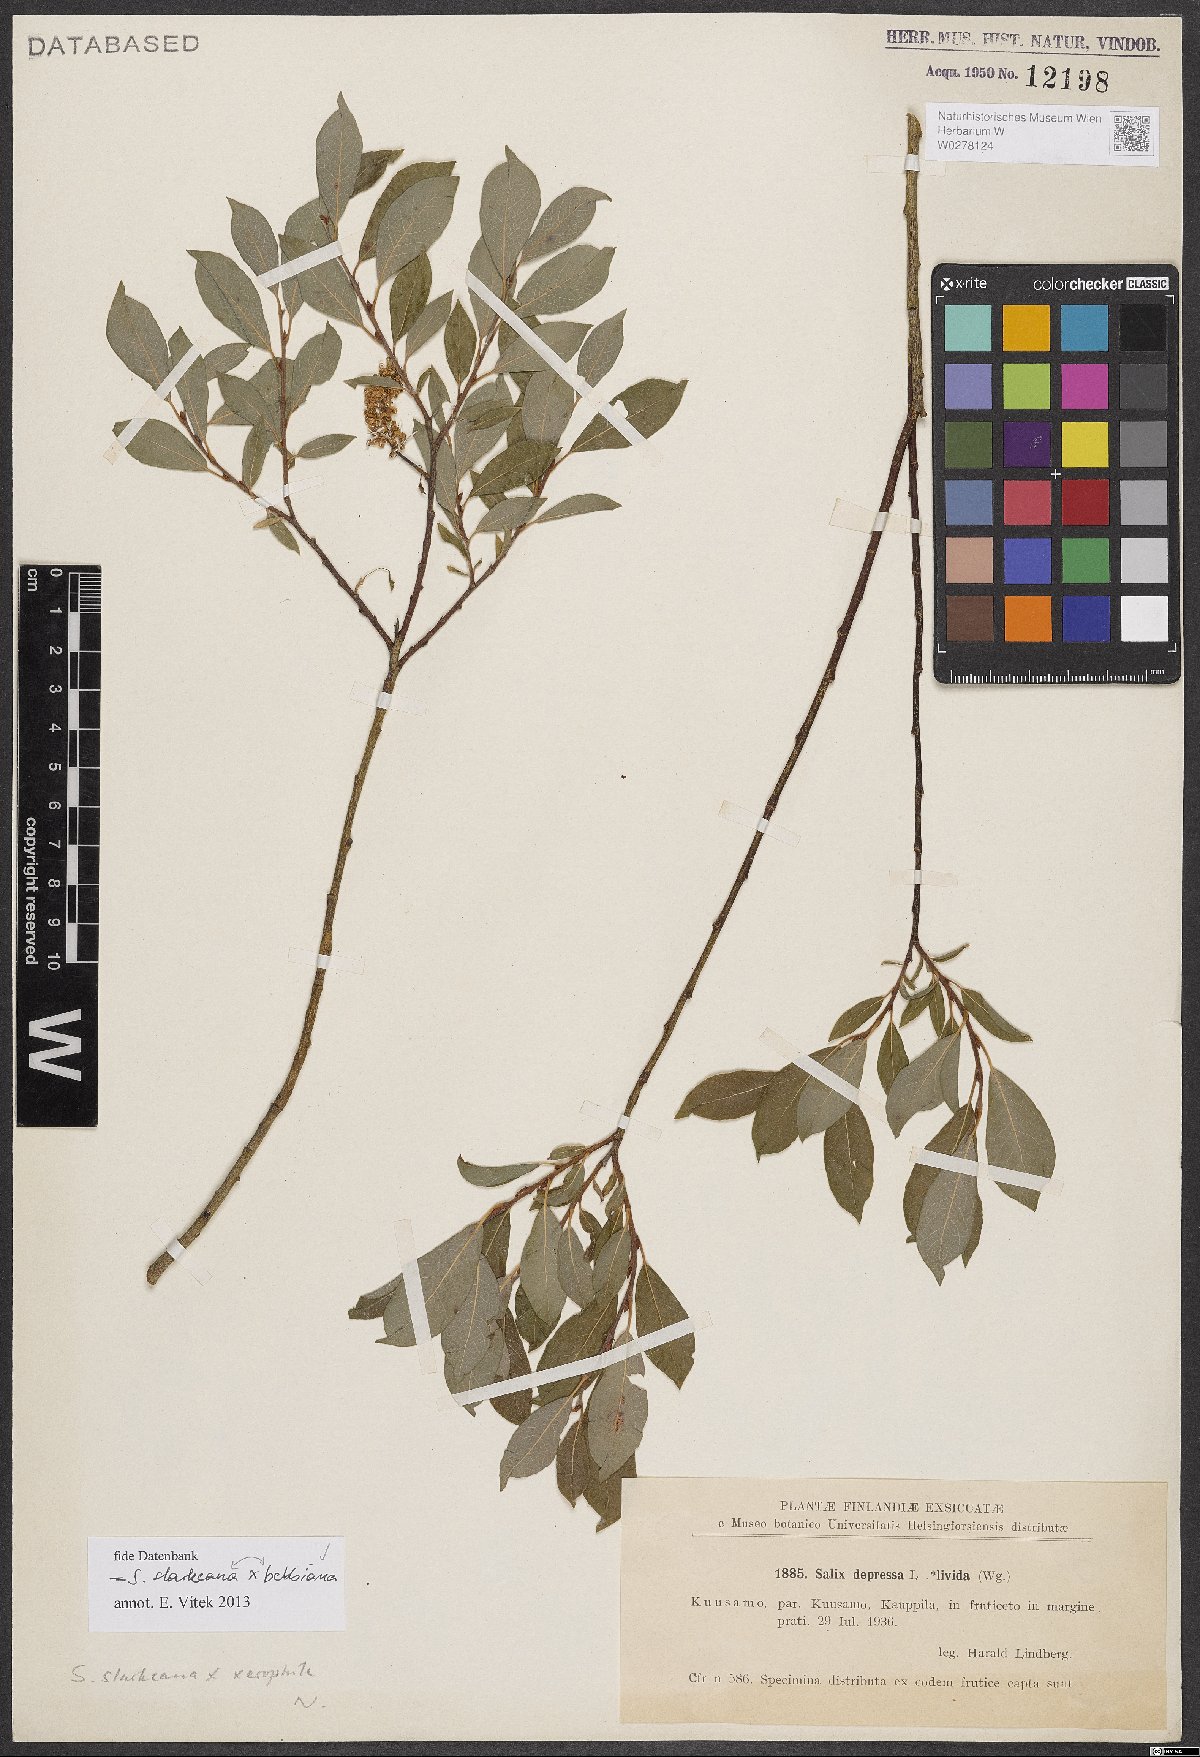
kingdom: Plantae
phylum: Tracheophyta
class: Magnoliopsida
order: Malpighiales
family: Salicaceae
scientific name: Salicaceae
